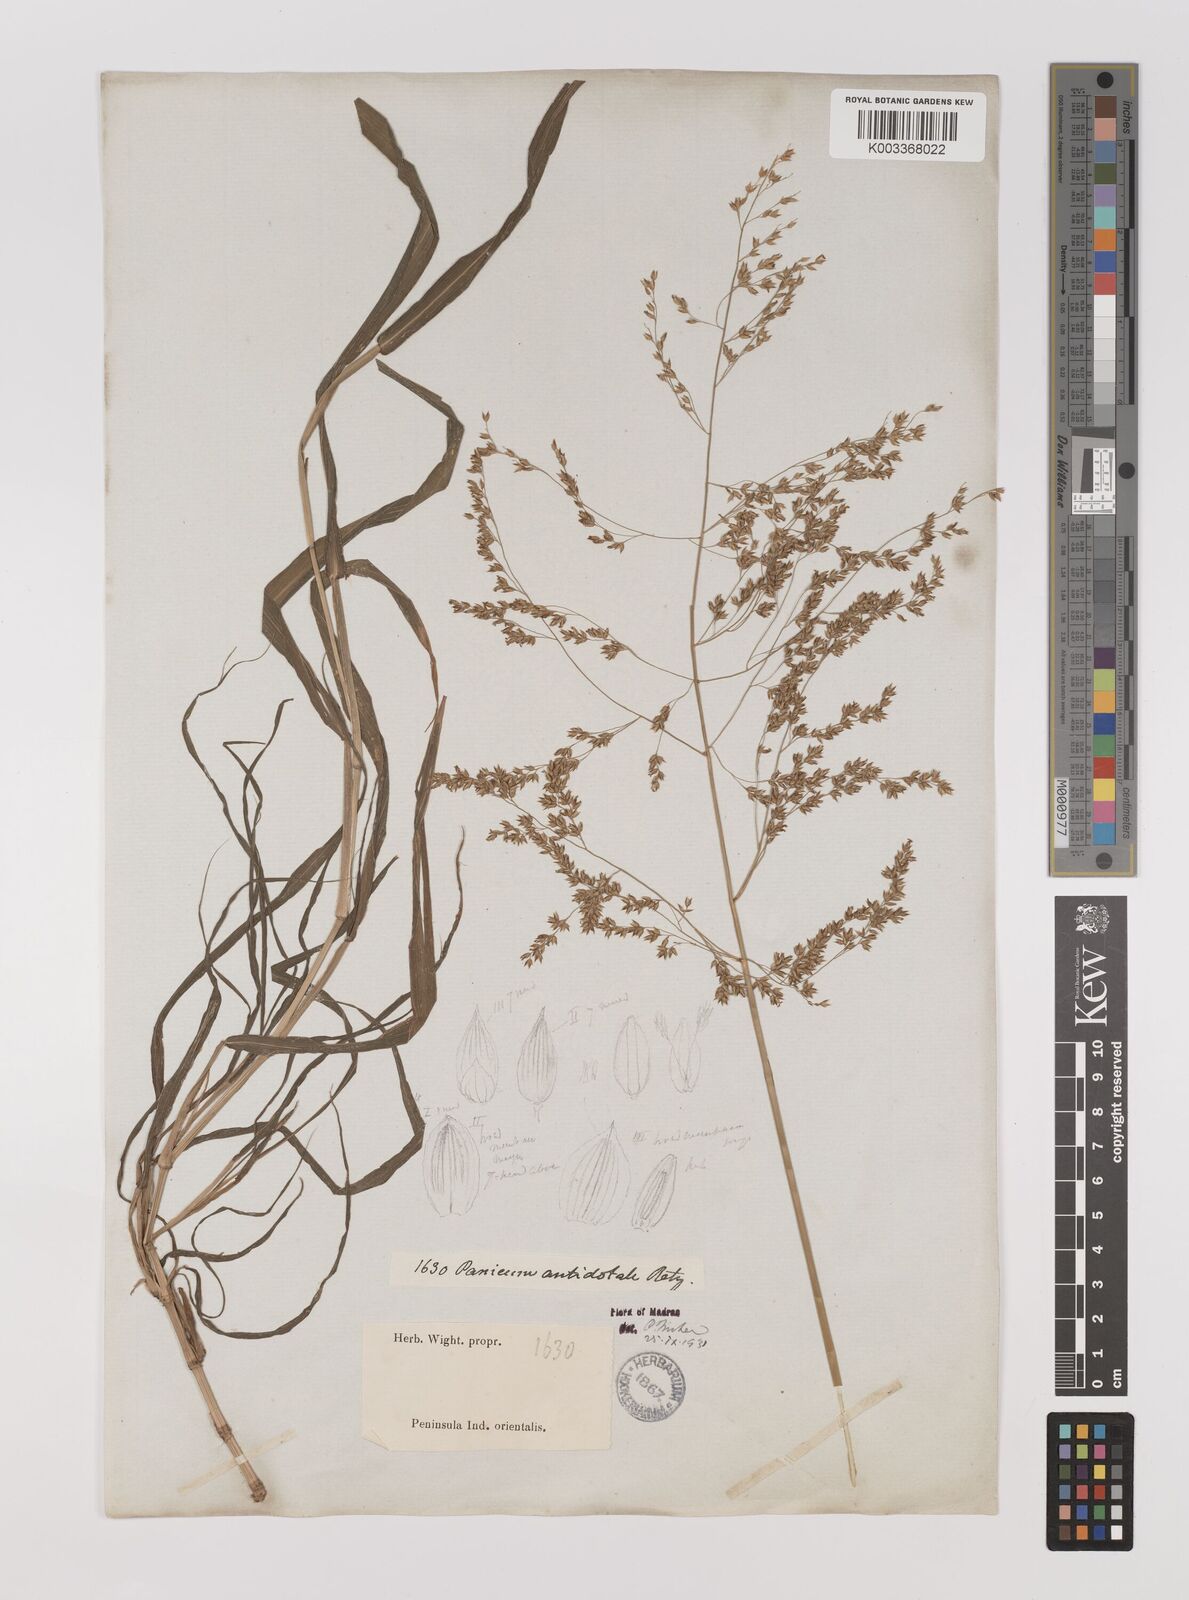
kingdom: Plantae
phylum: Tracheophyta
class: Liliopsida
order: Poales
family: Poaceae
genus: Panicum
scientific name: Panicum antidotale
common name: Blue panicum
